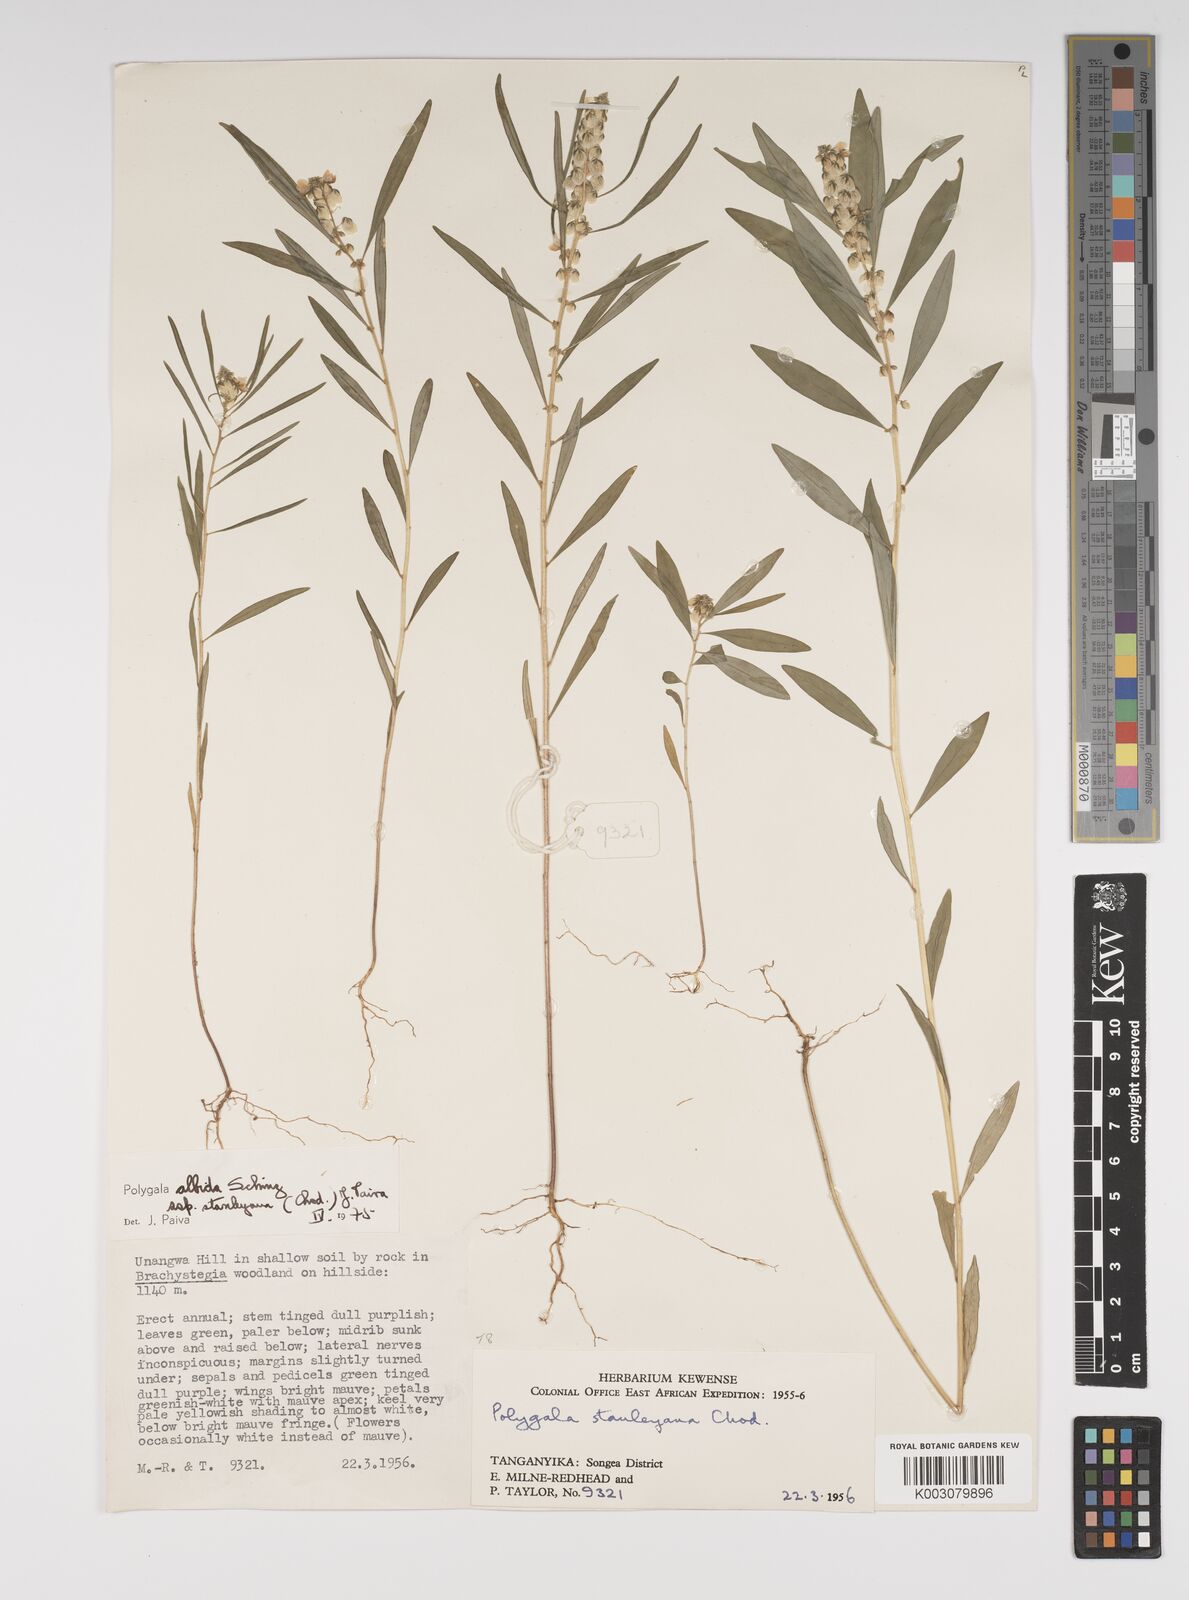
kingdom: Plantae
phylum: Tracheophyta
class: Magnoliopsida
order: Fabales
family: Polygalaceae
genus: Polygala
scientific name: Polygala albida
